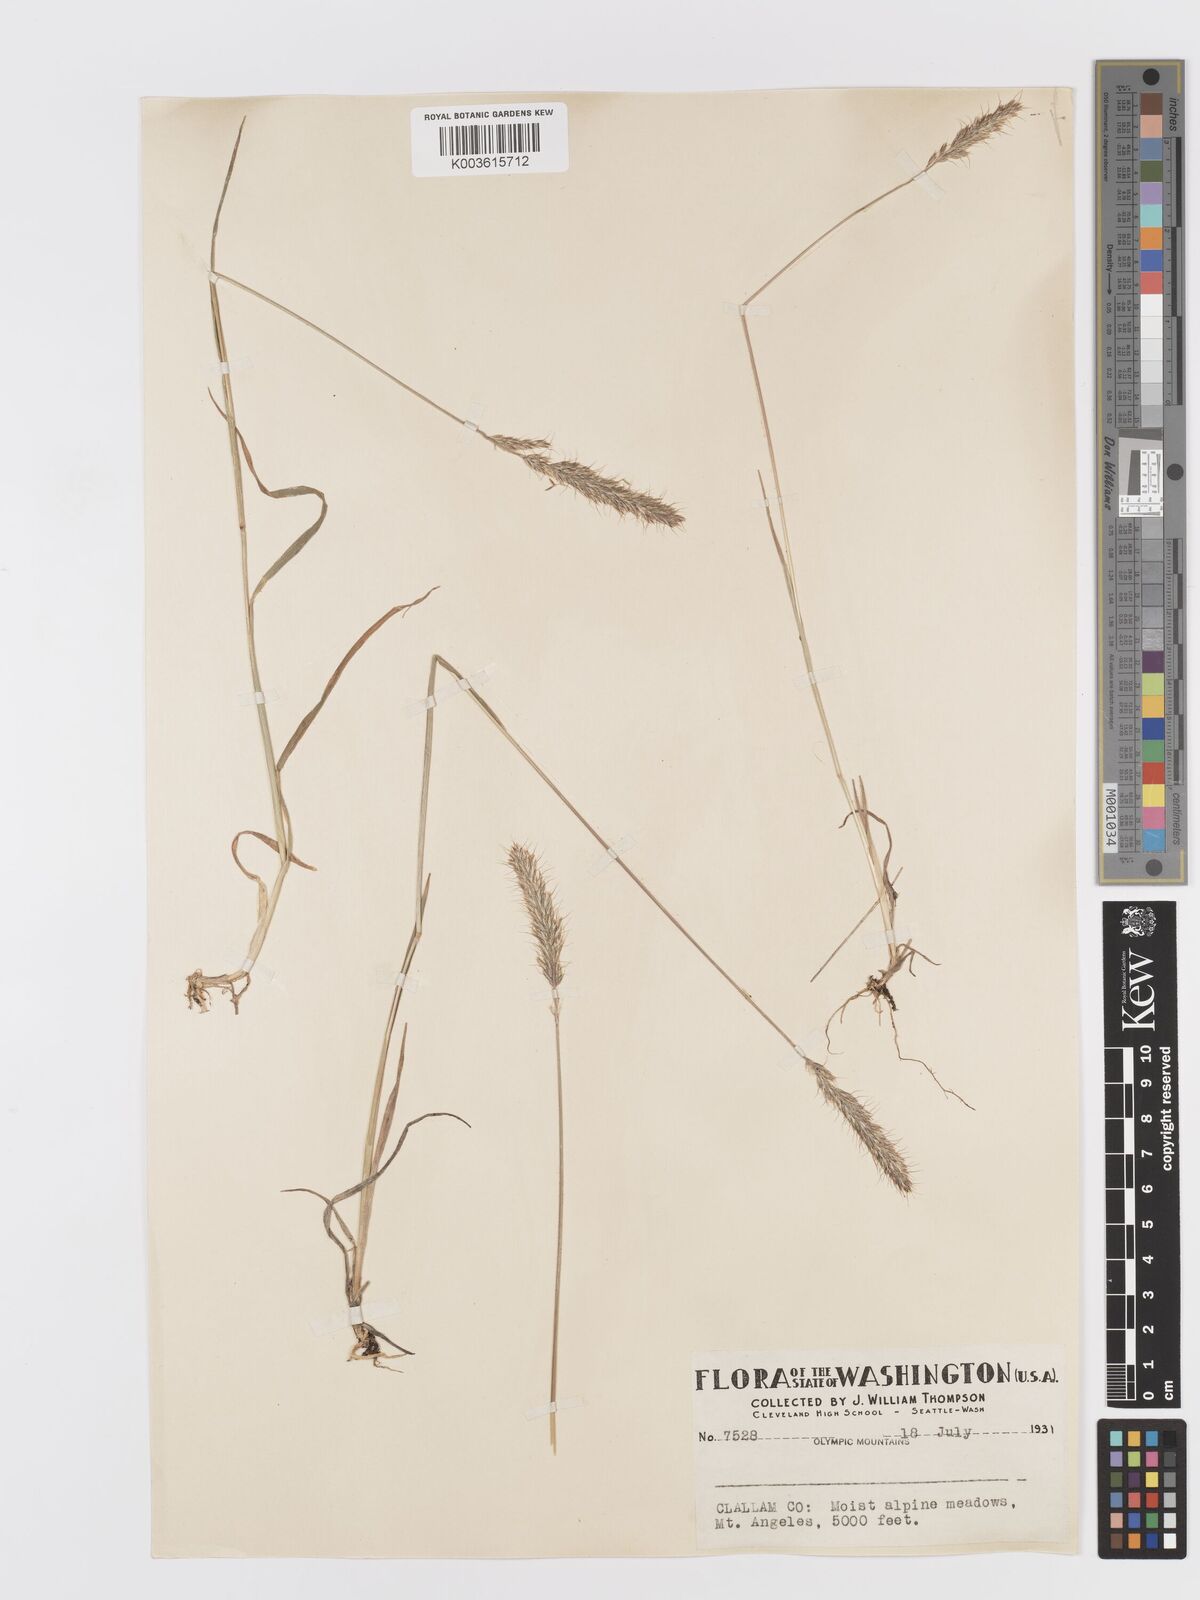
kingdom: Plantae
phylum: Tracheophyta
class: Liliopsida
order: Poales
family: Poaceae
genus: Koeleria
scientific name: Koeleria spicata
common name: Mountain trisetum
